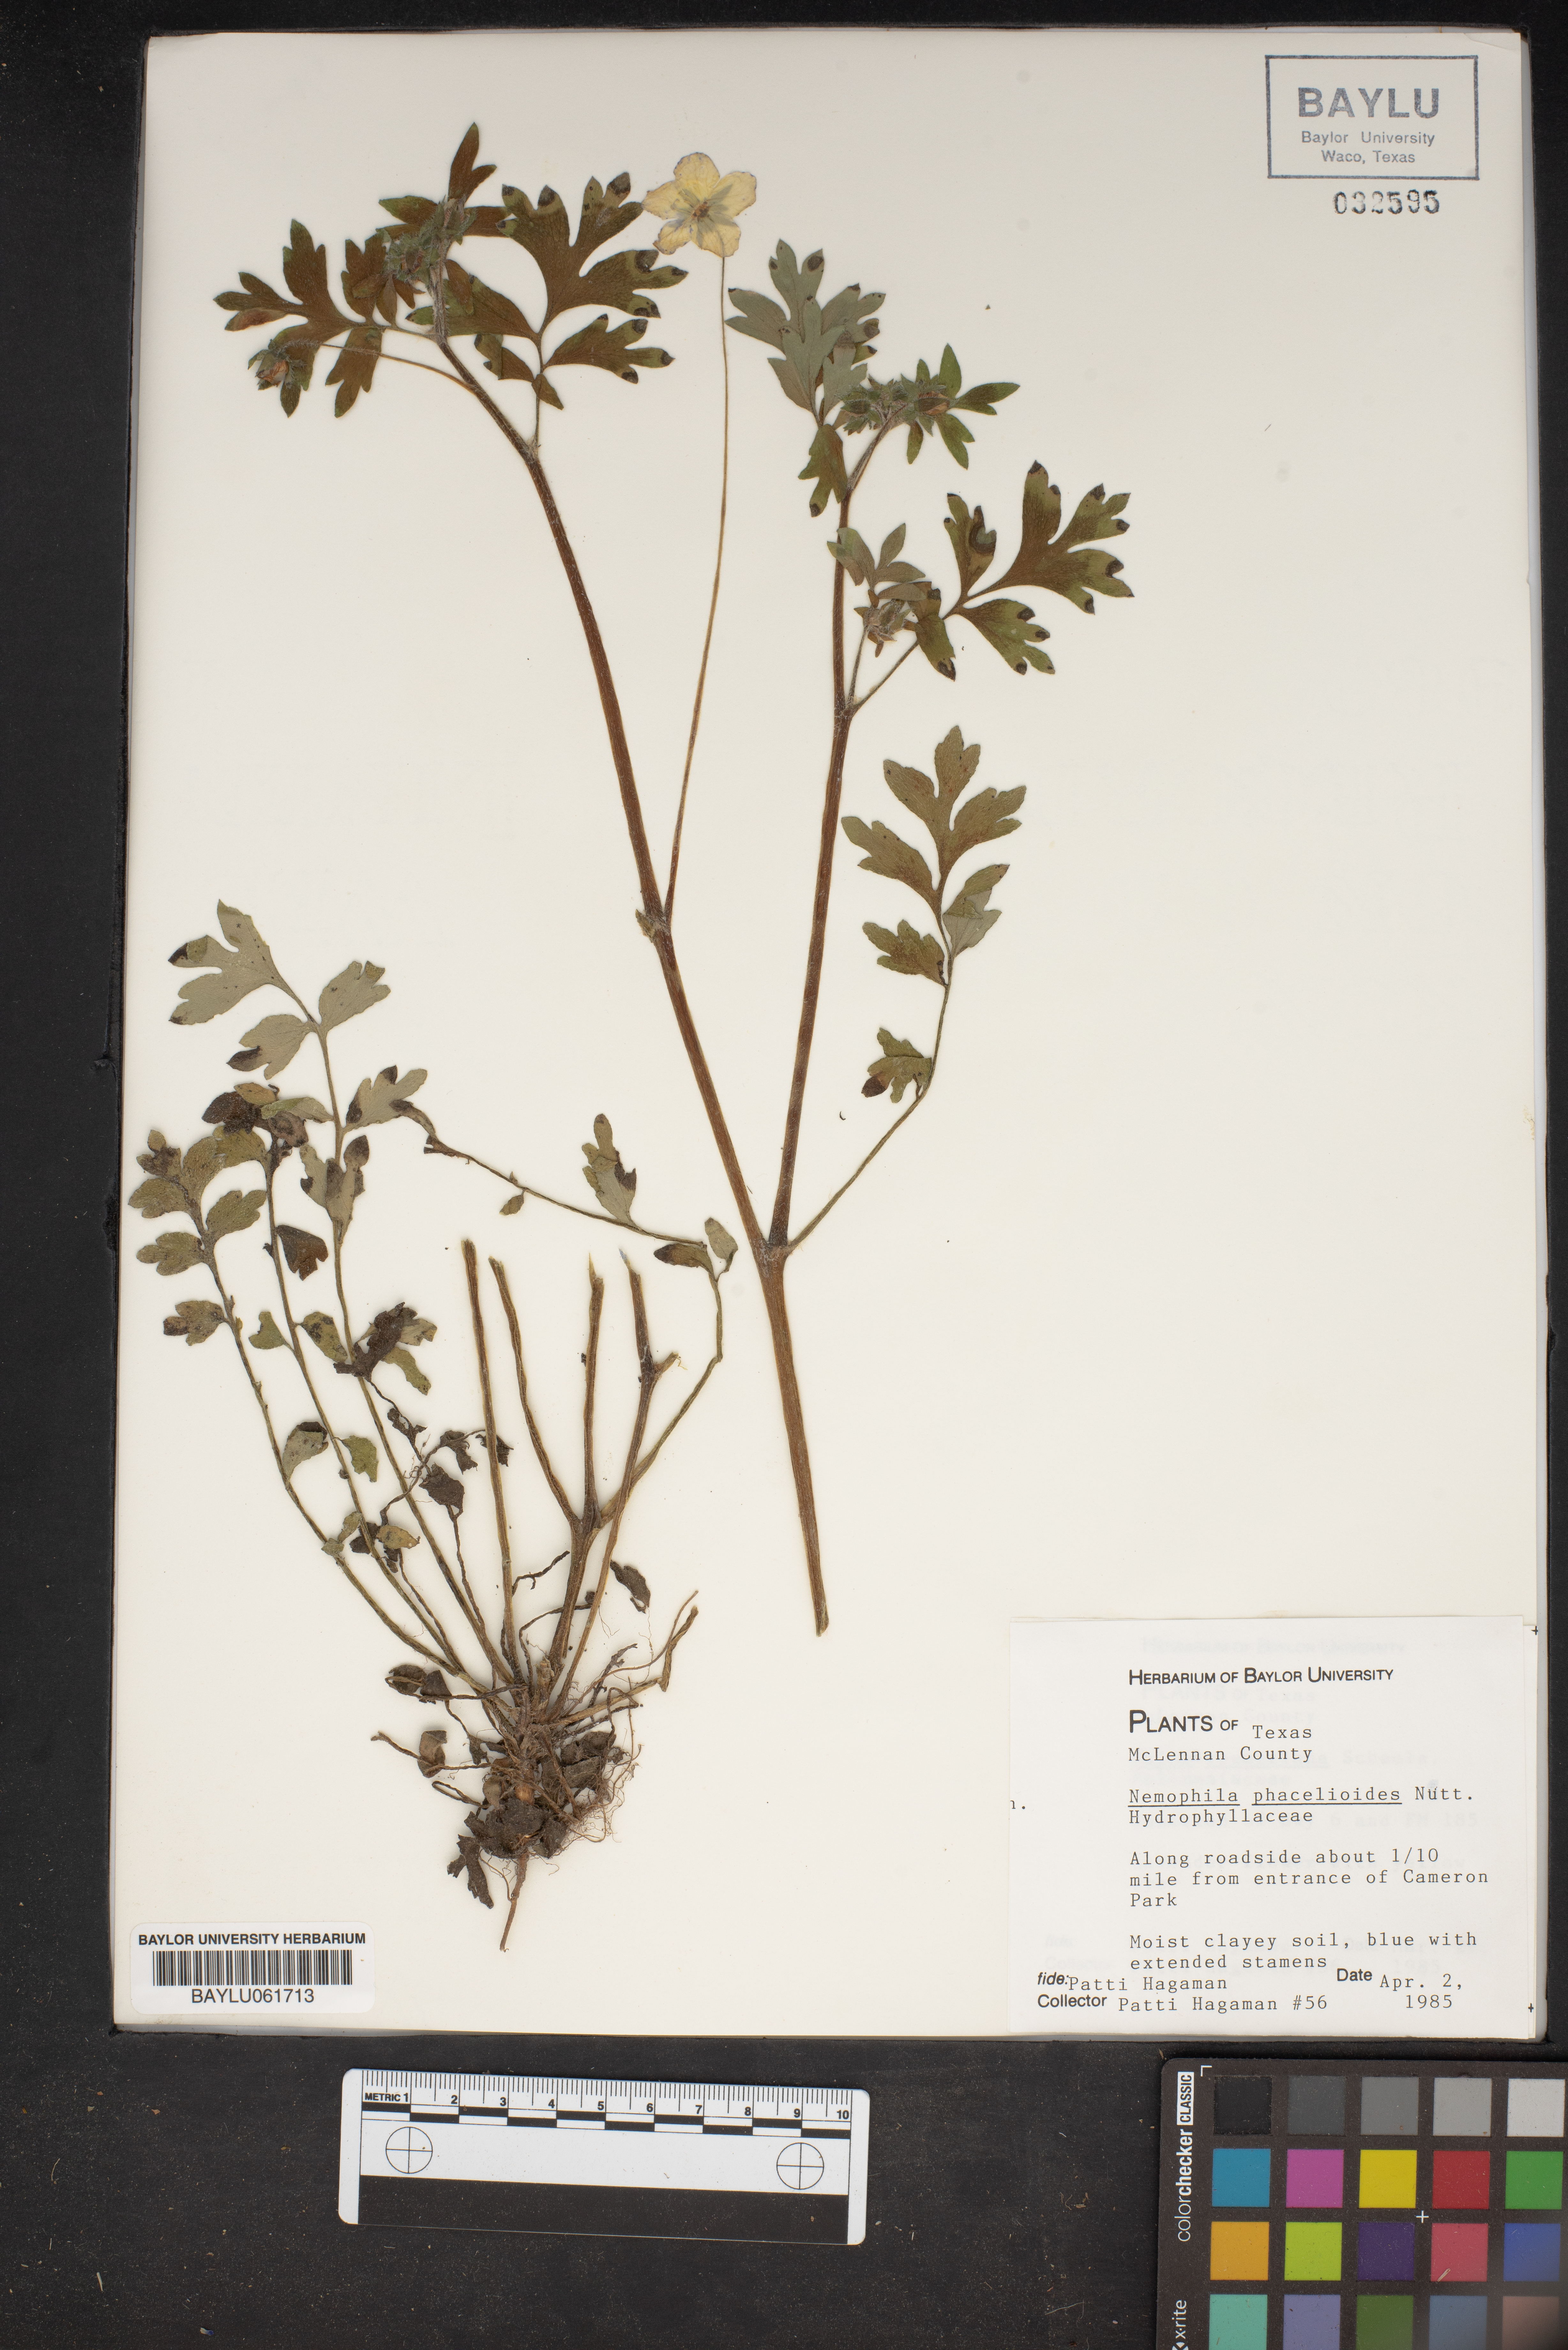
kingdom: Plantae
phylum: Tracheophyta
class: Magnoliopsida
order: Boraginales
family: Hydrophyllaceae
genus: Nemophila
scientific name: Nemophila phacelioides
